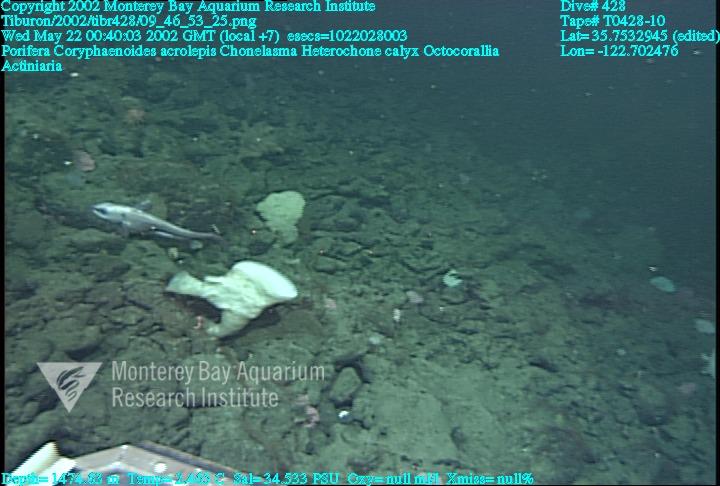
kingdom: Animalia
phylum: Porifera
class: Hexactinellida
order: Sceptrulophora
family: Euretidae
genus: Chonelasma
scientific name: Chonelasma
